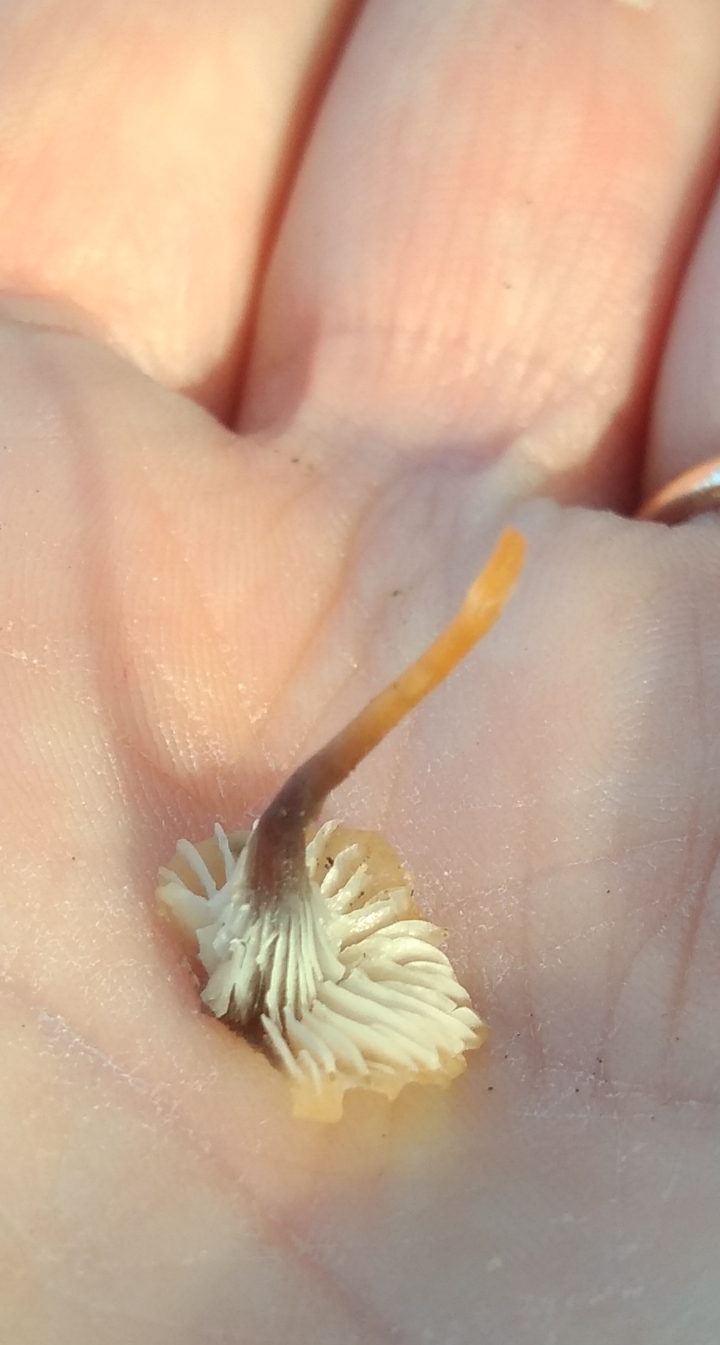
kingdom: Fungi
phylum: Basidiomycota
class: Agaricomycetes
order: Hymenochaetales
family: Rickenellaceae
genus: Rickenella
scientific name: Rickenella swartzii
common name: finstokket mosnavlehat
